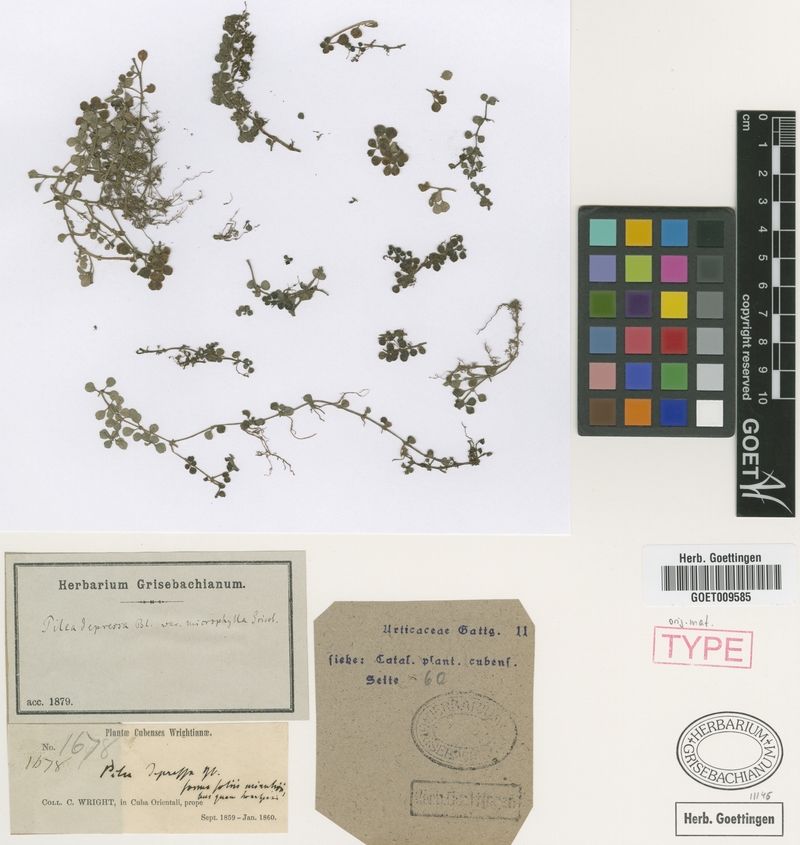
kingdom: Plantae
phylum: Tracheophyta
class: Magnoliopsida
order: Rosales
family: Urticaceae
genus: Pilea
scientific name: Pilea depressa
